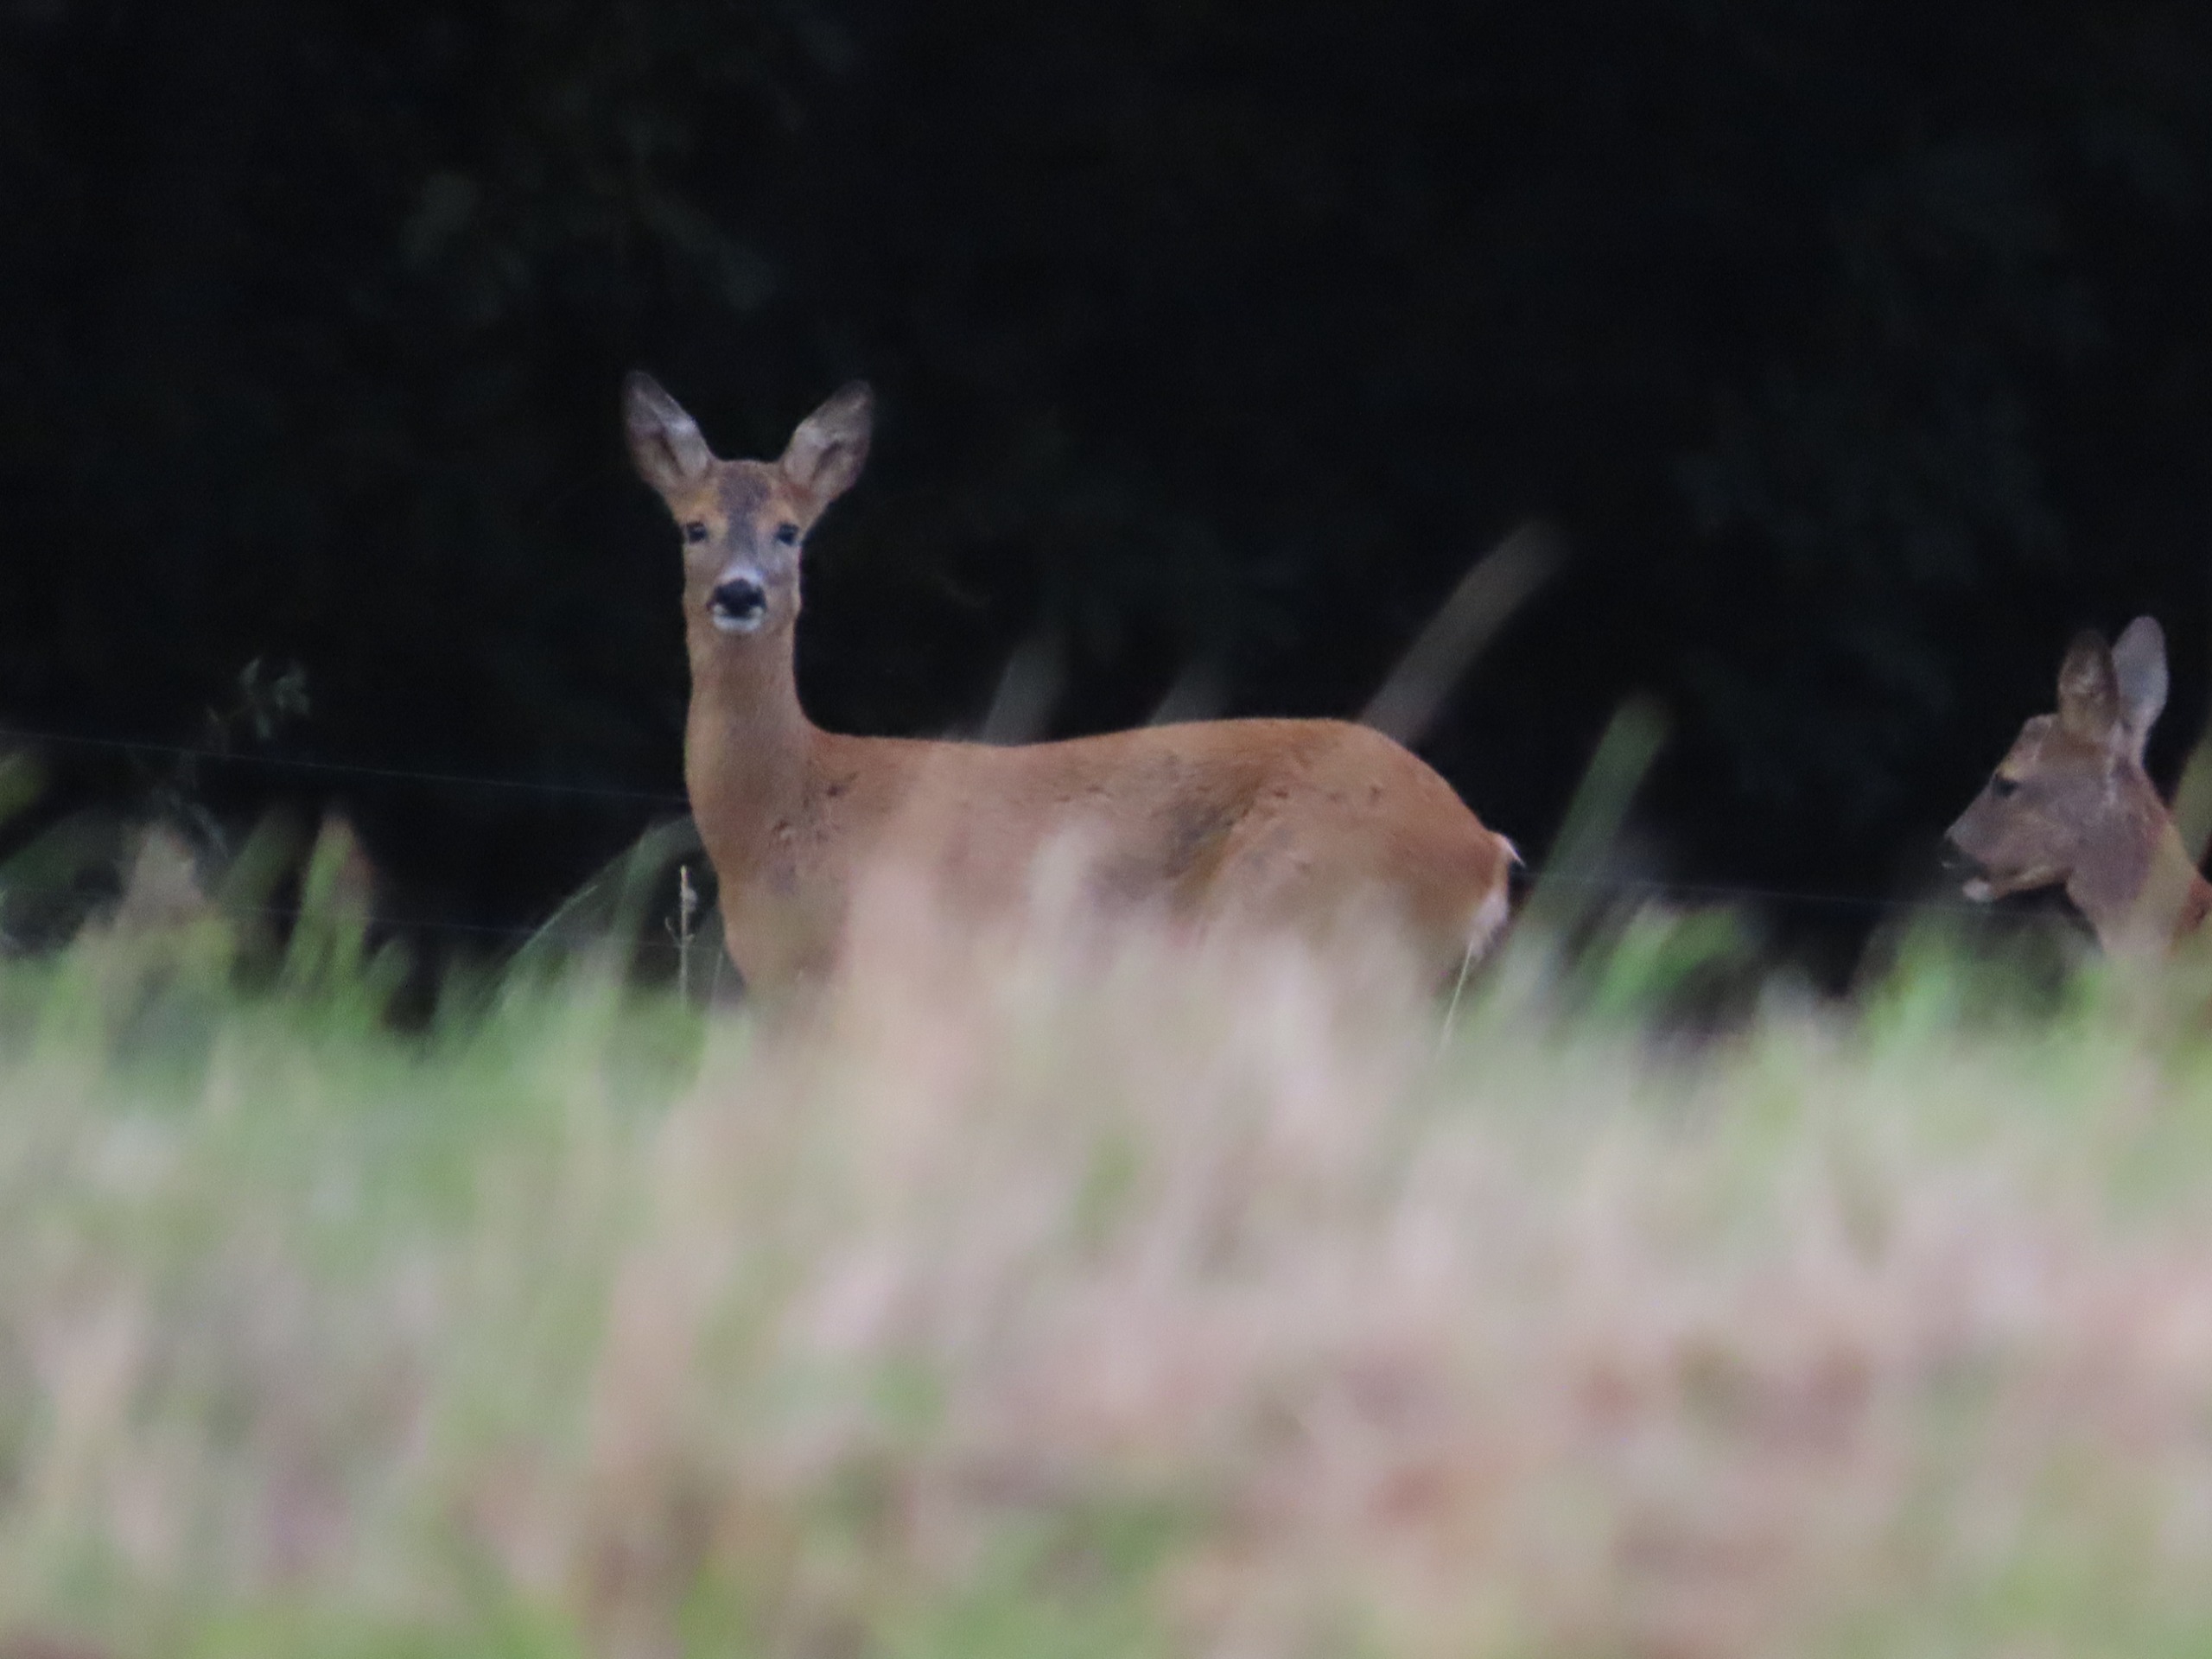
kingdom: Animalia
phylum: Chordata
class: Mammalia
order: Artiodactyla
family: Cervidae
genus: Capreolus
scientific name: Capreolus capreolus
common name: Rådyr
